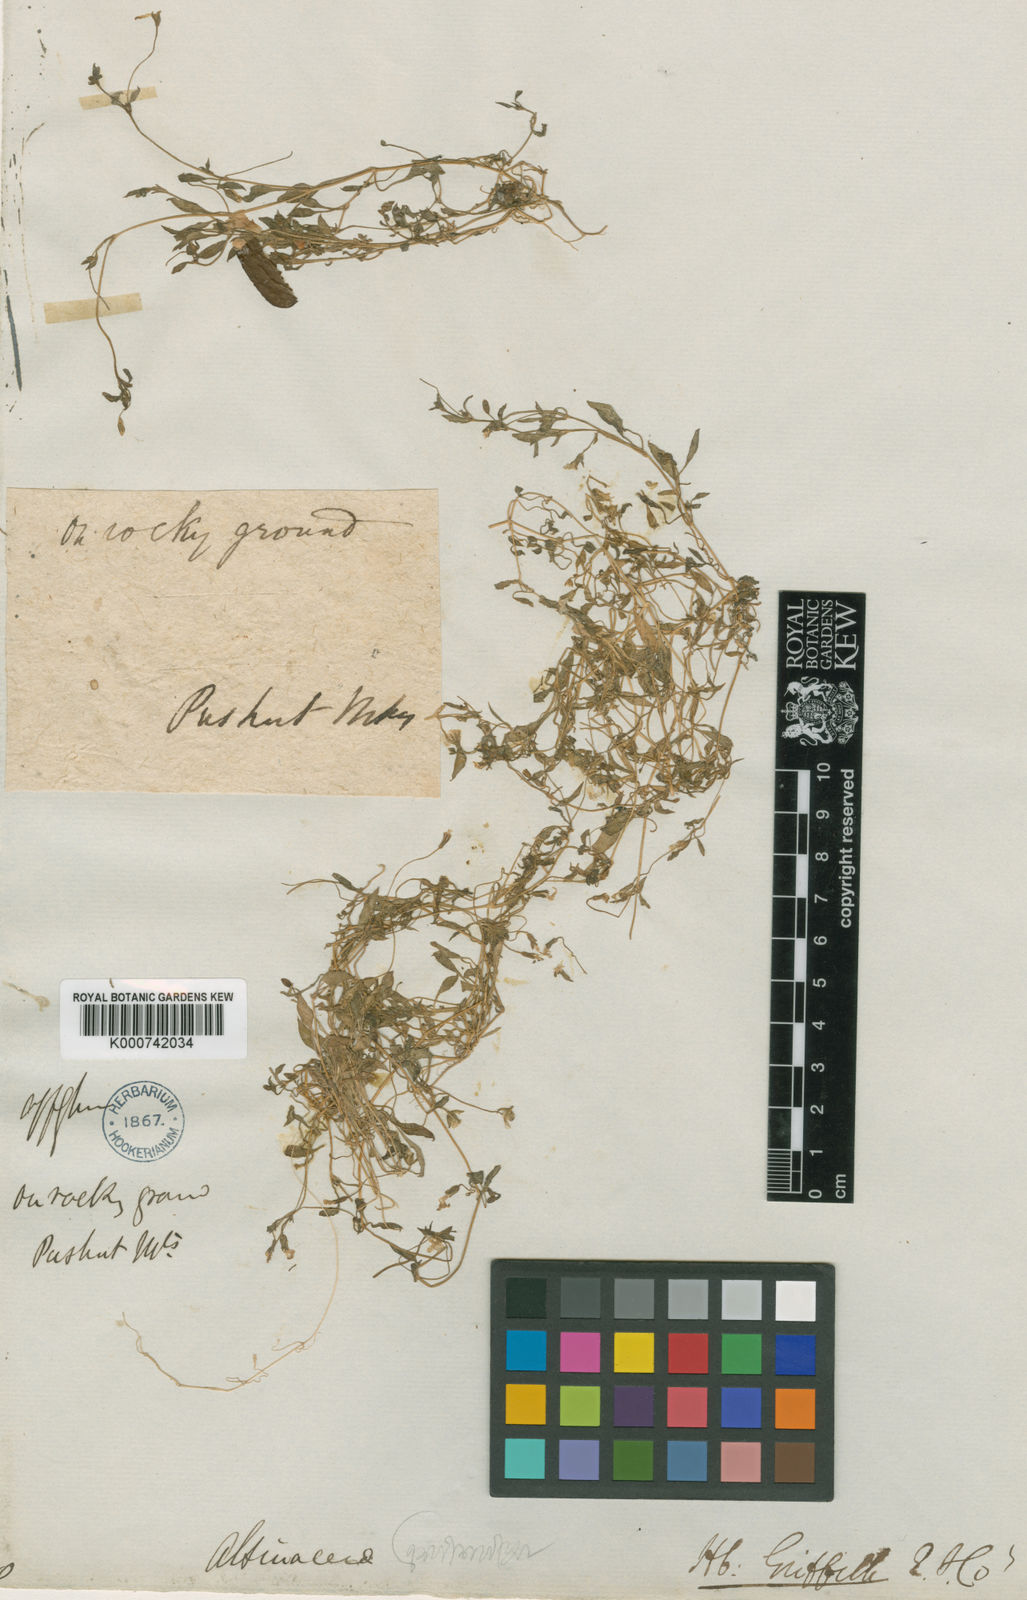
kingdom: Plantae
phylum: Tracheophyta
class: Magnoliopsida
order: Caryophyllales
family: Caryophyllaceae
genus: Lepyrodiclis
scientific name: Lepyrodiclis tenera
